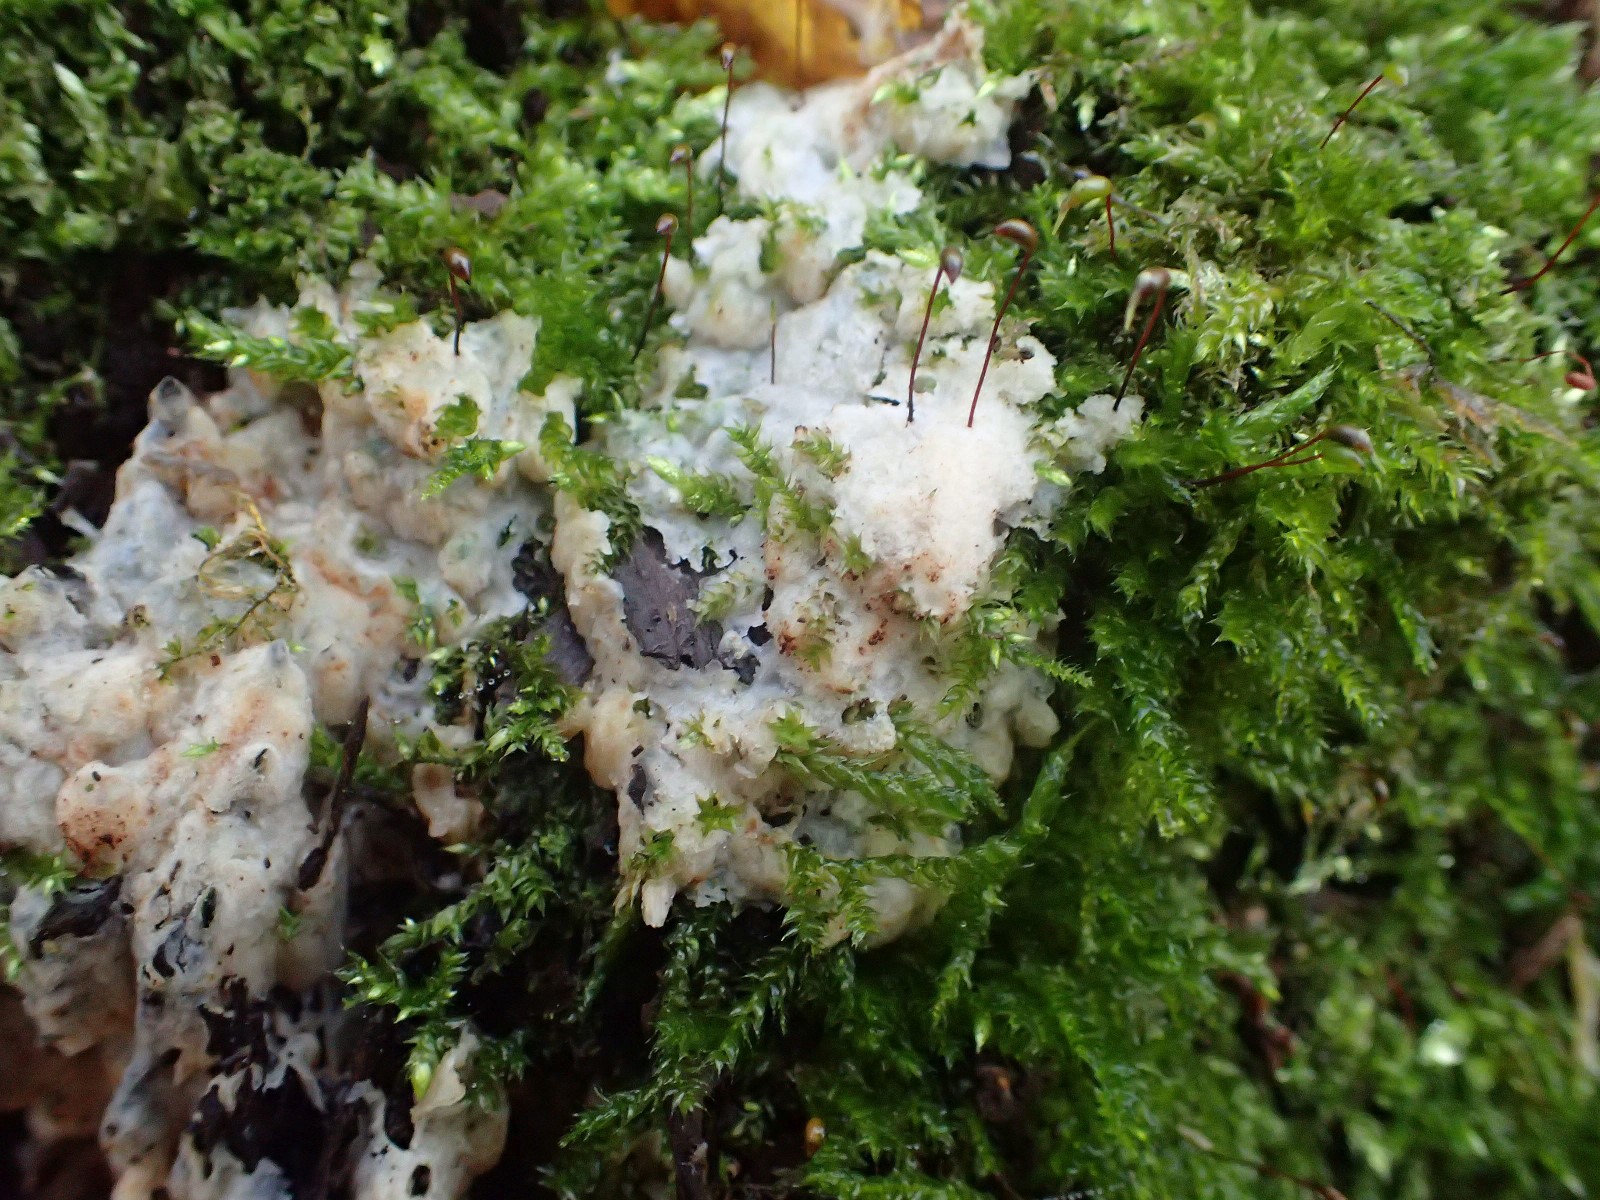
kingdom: Fungi
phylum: Basidiomycota
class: Agaricomycetes
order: Polyporales
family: Meripilaceae
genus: Rigidoporus
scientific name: Rigidoporus sanguinolentus
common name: blod-skorpeporesvamp
